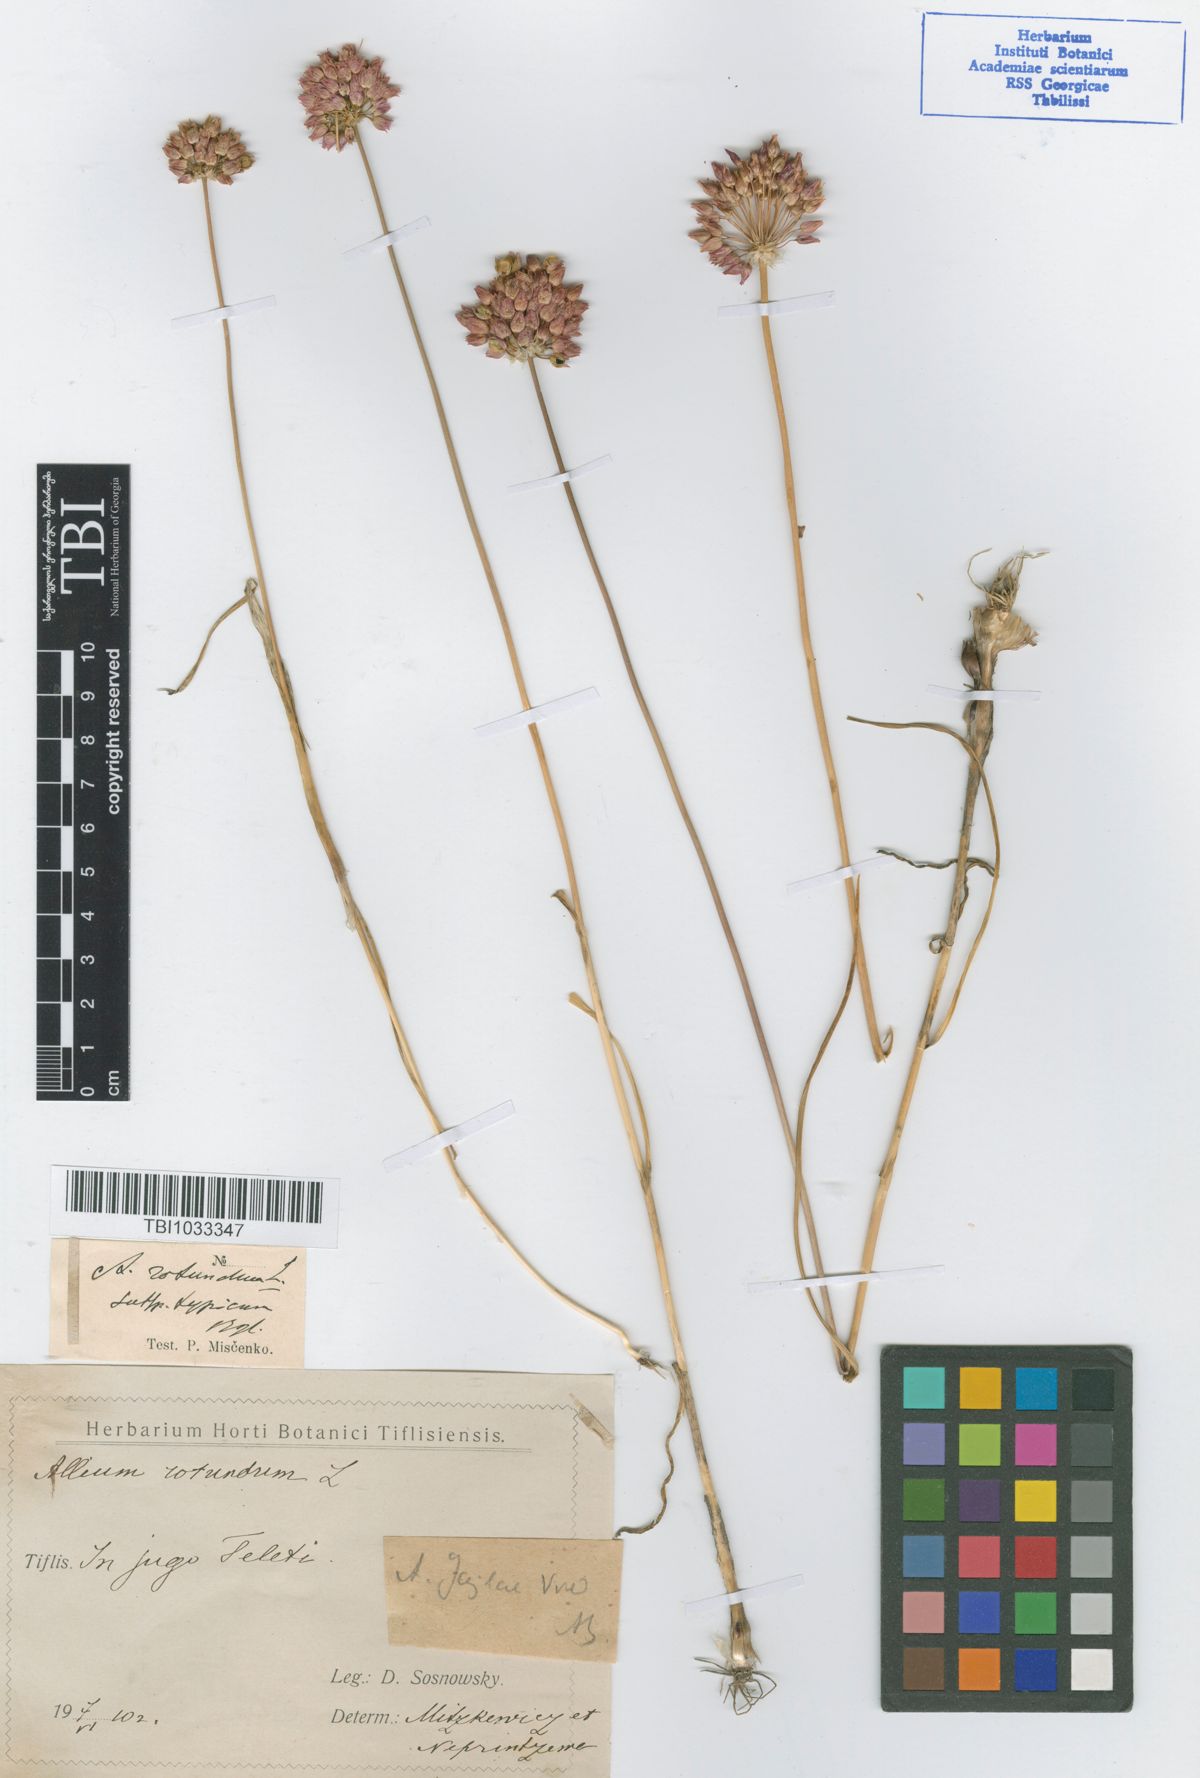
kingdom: Plantae
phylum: Tracheophyta
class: Liliopsida
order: Asparagales
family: Amaryllidaceae
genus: Allium
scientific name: Allium rotundum
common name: Sand leek
